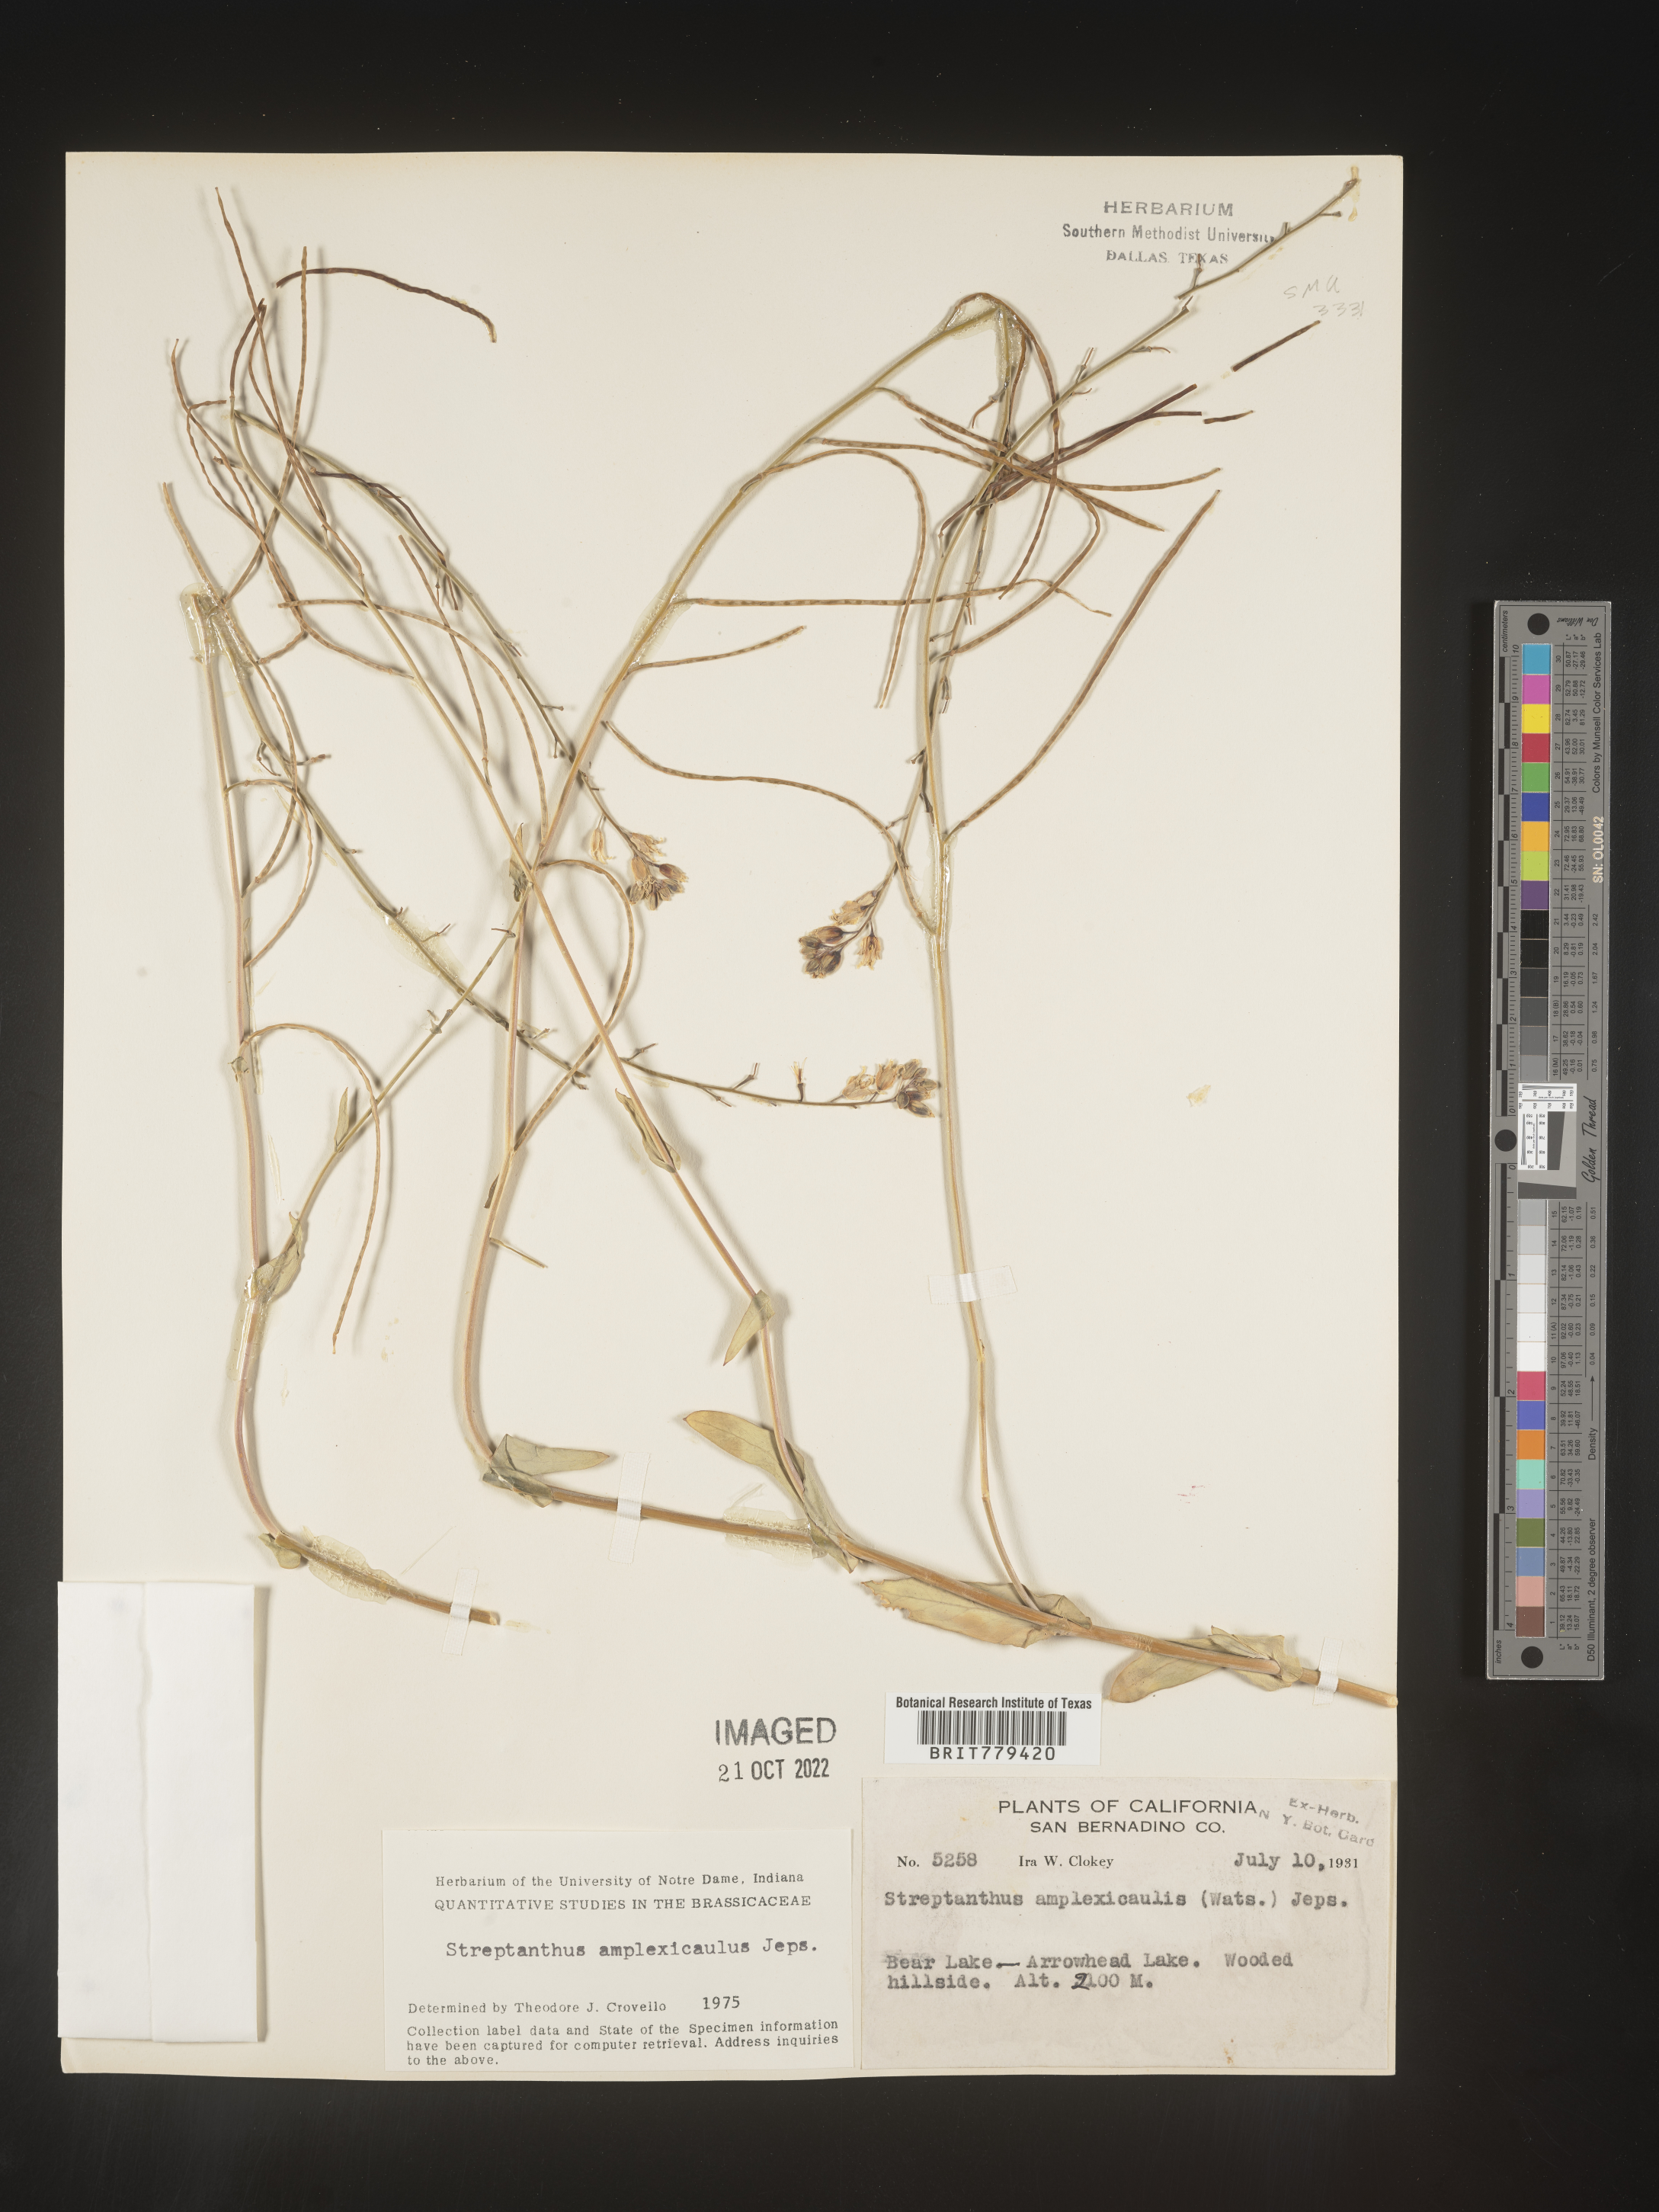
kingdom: Plantae
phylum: Tracheophyta
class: Magnoliopsida
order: Brassicales
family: Brassicaceae
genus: Streptanthus
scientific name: Streptanthus
